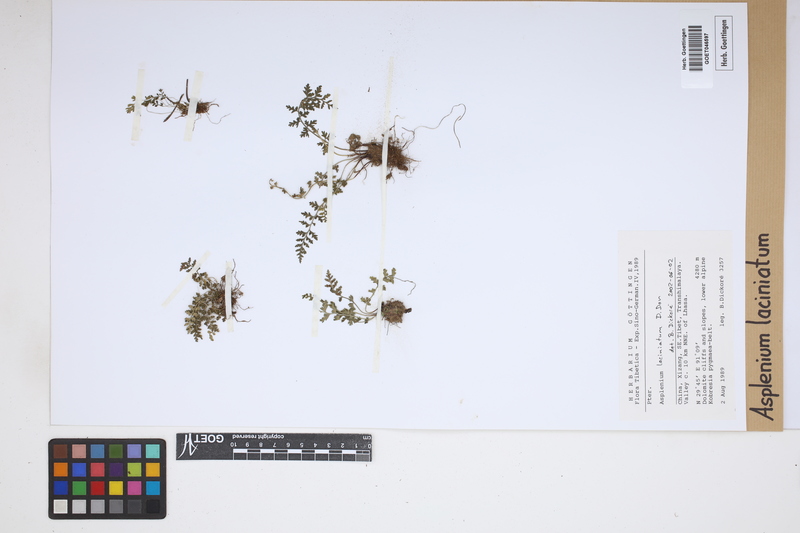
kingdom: Plantae
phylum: Tracheophyta
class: Polypodiopsida
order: Polypodiales
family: Aspleniaceae
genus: Asplenium
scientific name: Asplenium laciniatum
